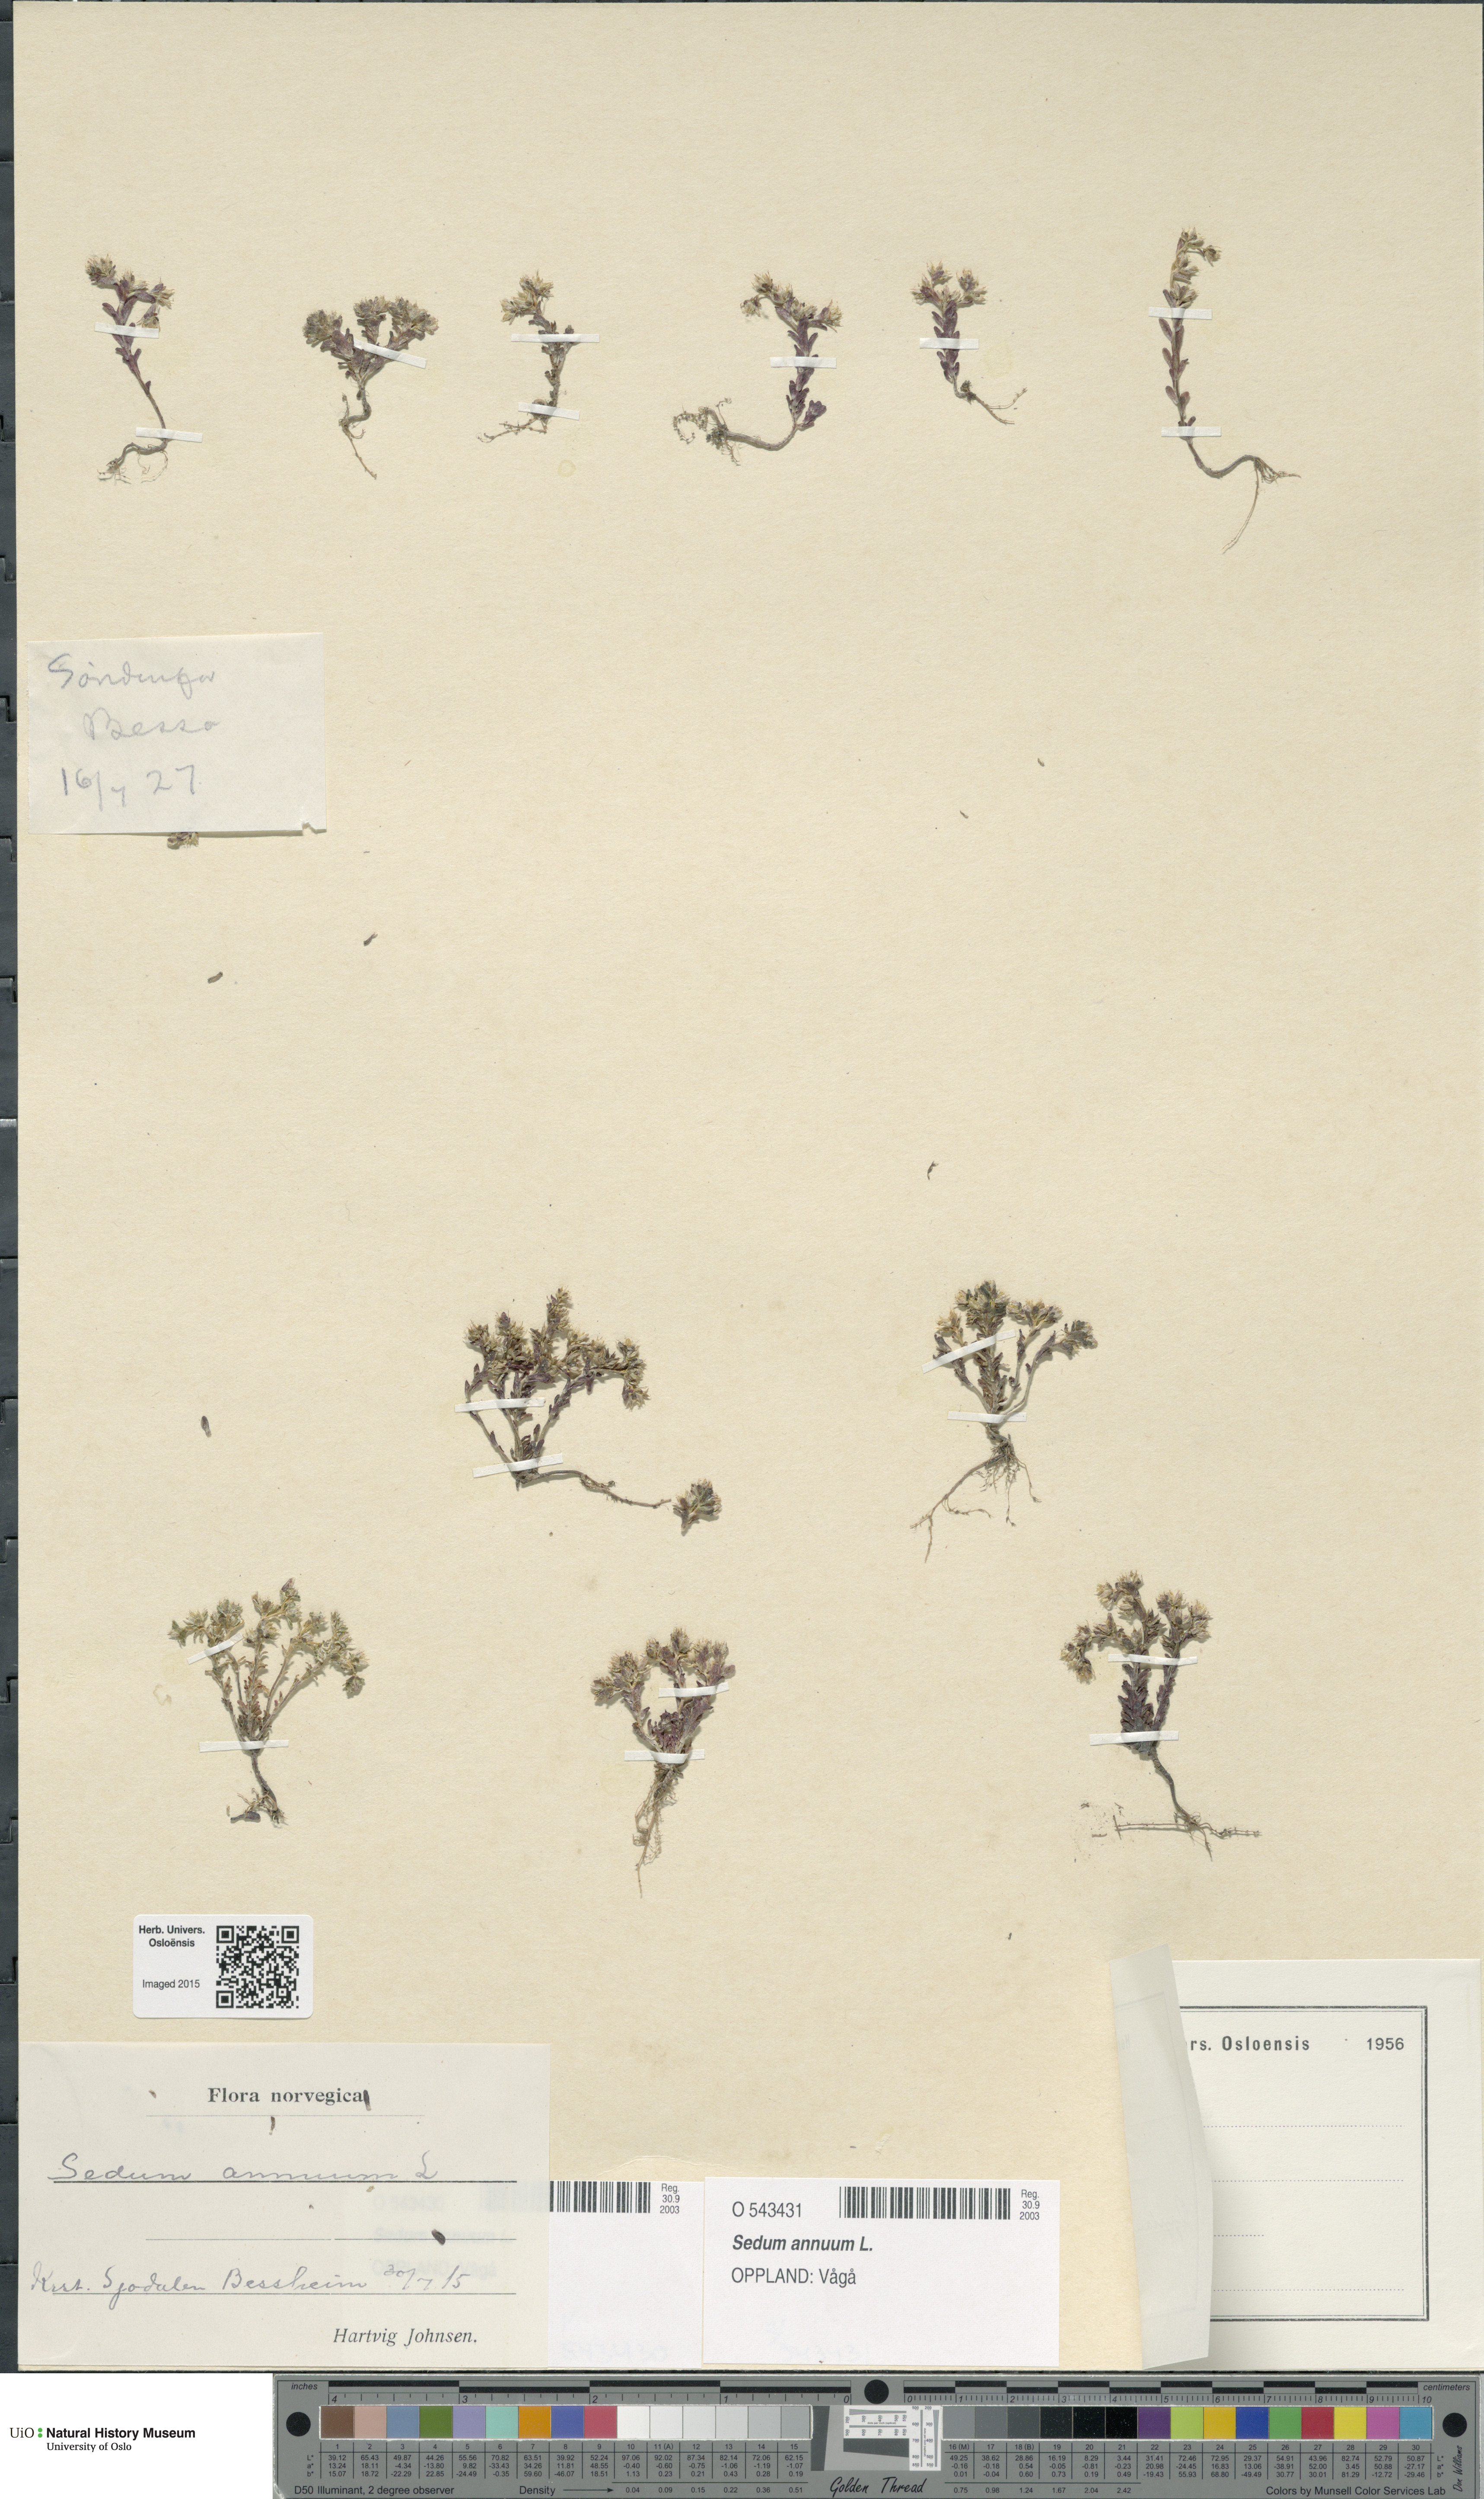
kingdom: Plantae
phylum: Tracheophyta
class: Magnoliopsida
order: Saxifragales
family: Crassulaceae
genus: Sedum
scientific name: Sedum annuum
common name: Annual stonecrop
